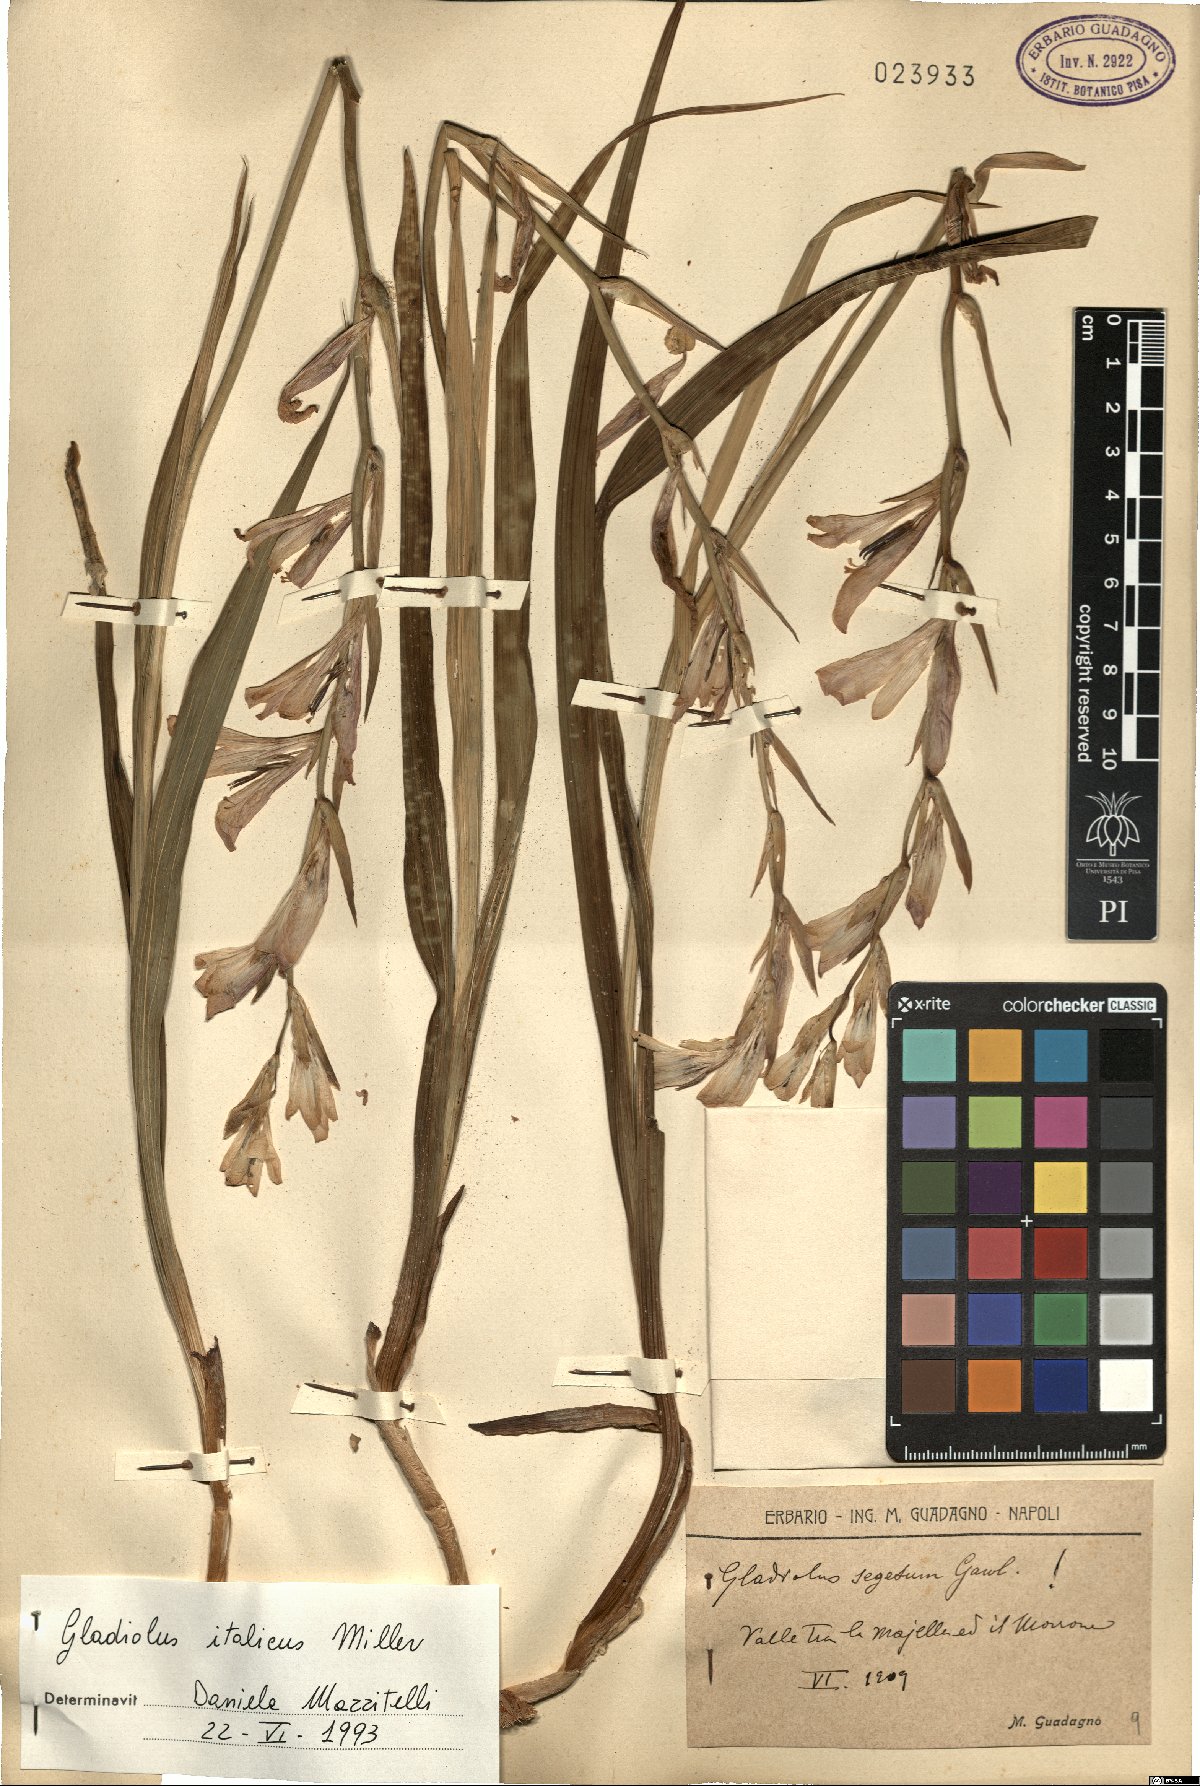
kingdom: Plantae
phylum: Tracheophyta
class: Liliopsida
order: Asparagales
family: Iridaceae
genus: Gladiolus
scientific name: Gladiolus italicus
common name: Field gladiolus
